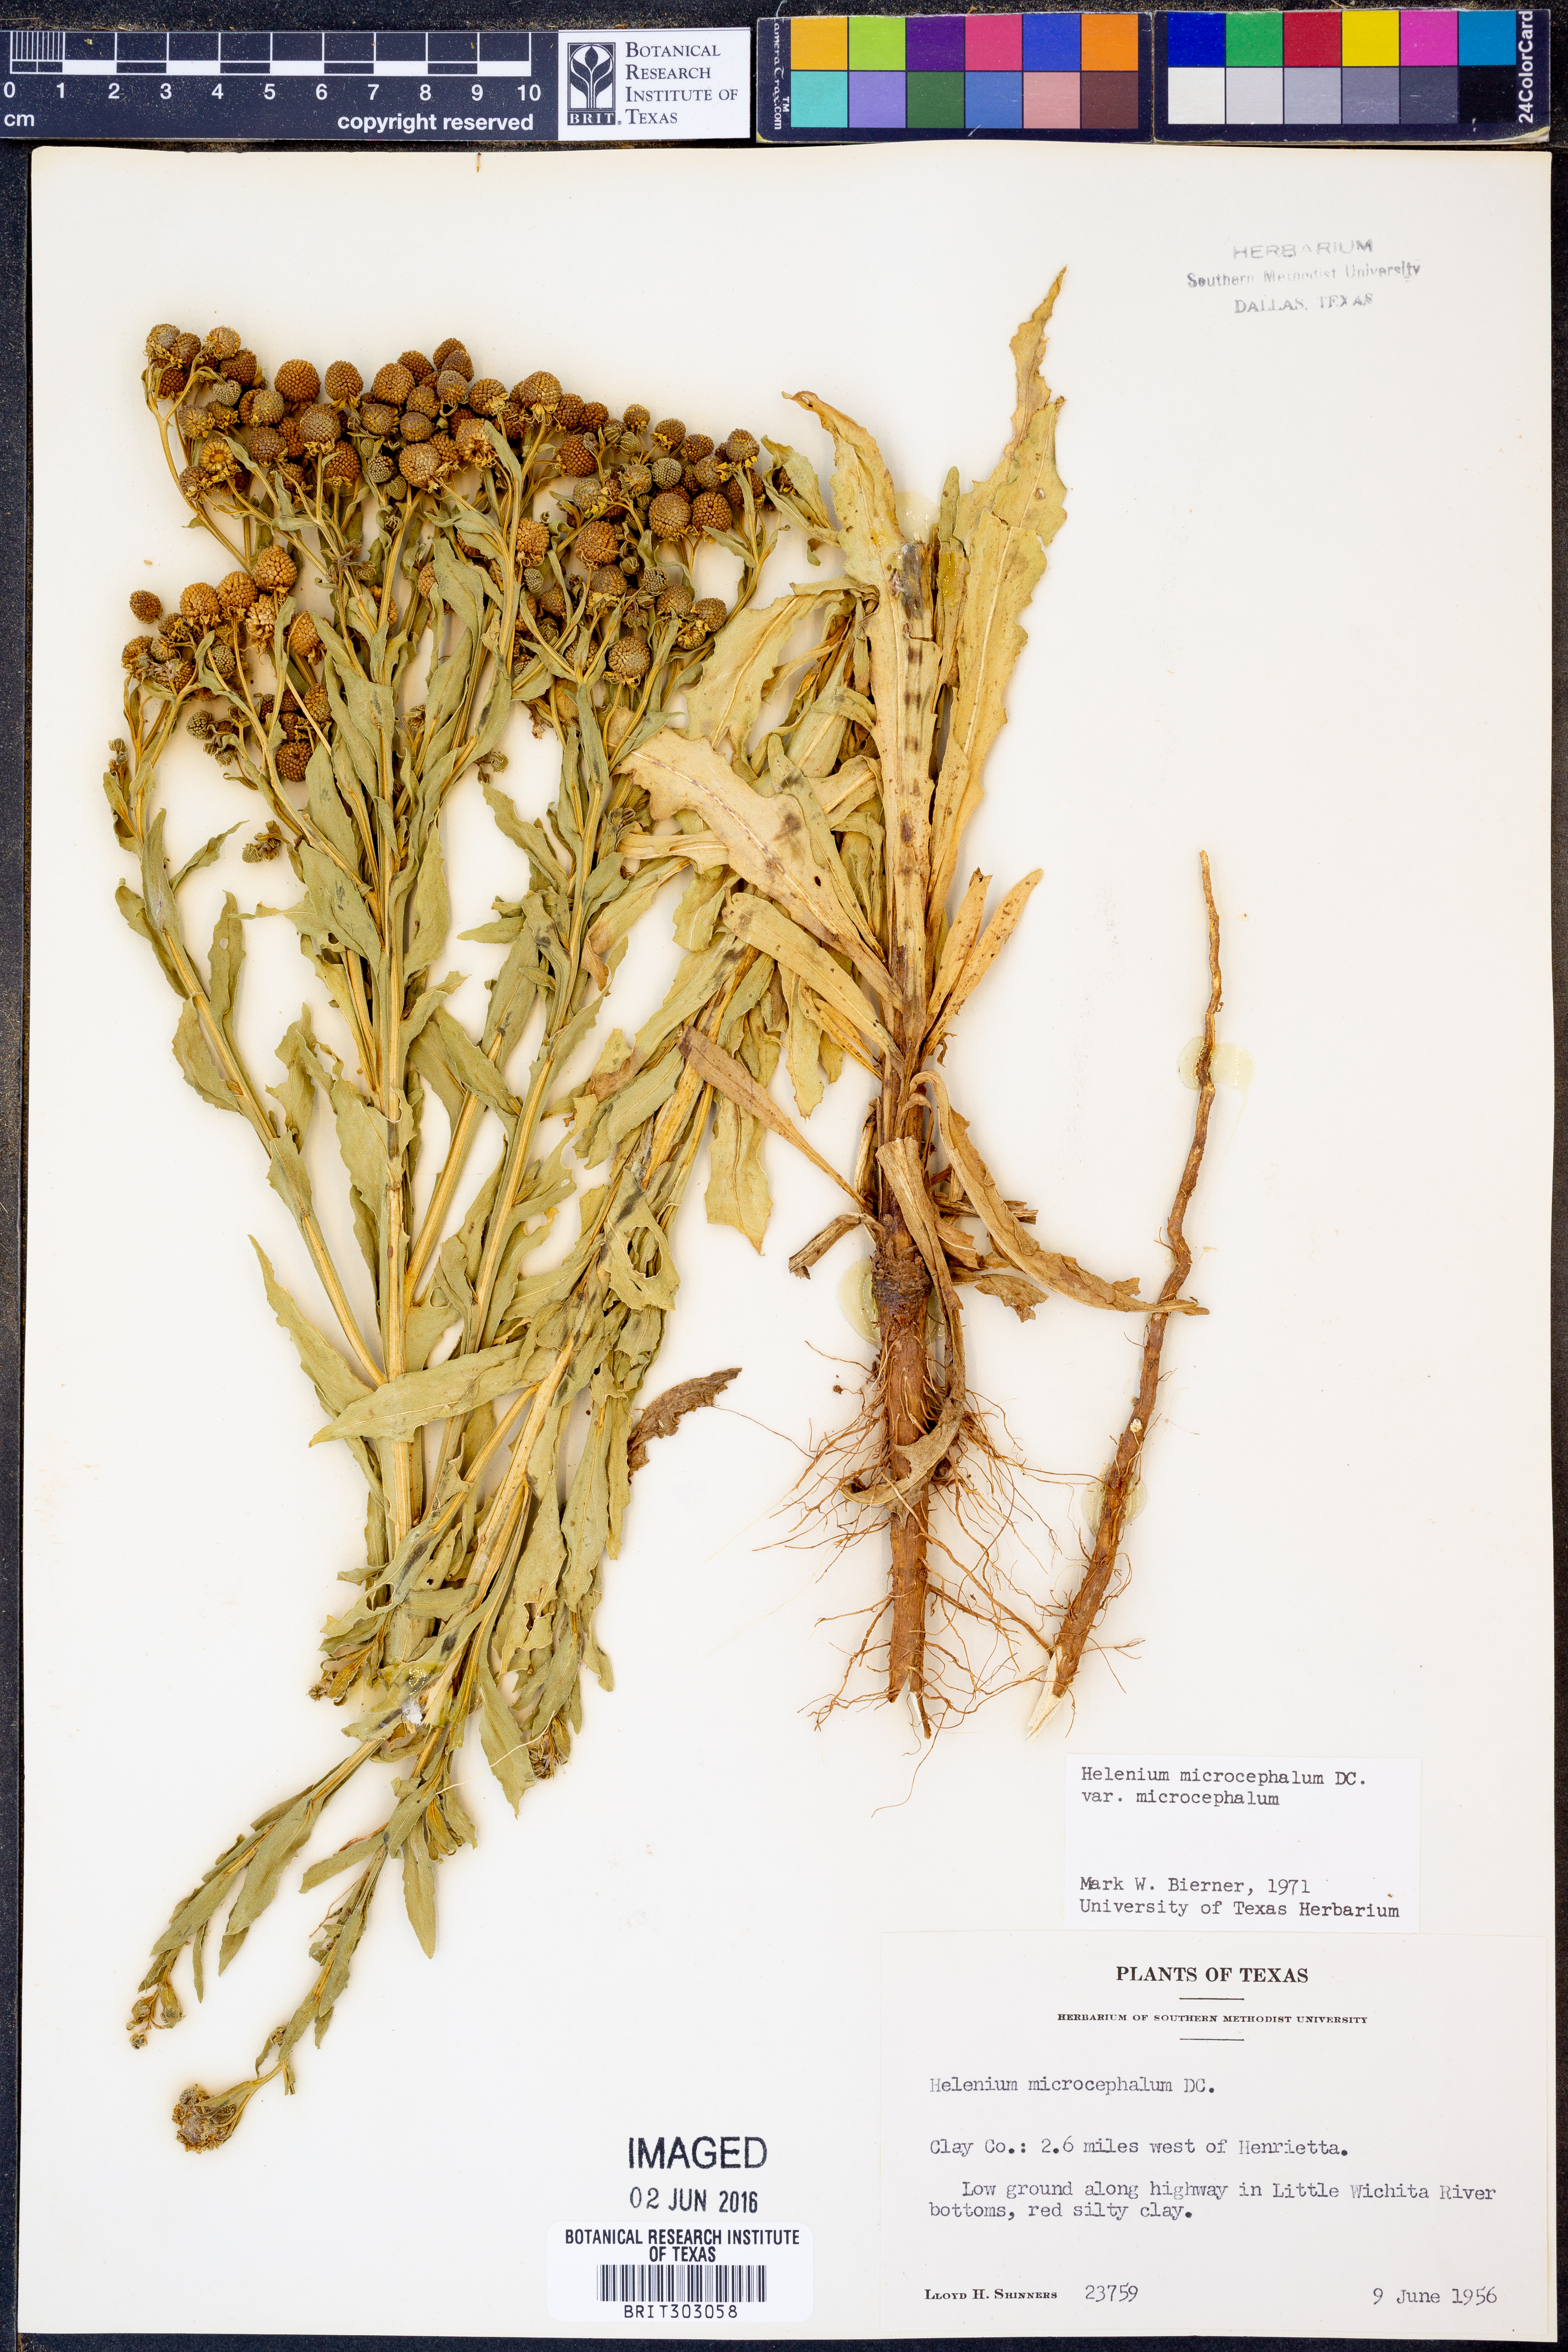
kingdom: Plantae
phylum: Tracheophyta
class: Magnoliopsida
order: Asterales
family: Asteraceae
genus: Helenium
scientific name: Helenium microcephalum
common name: Smallhead sneezeweed
